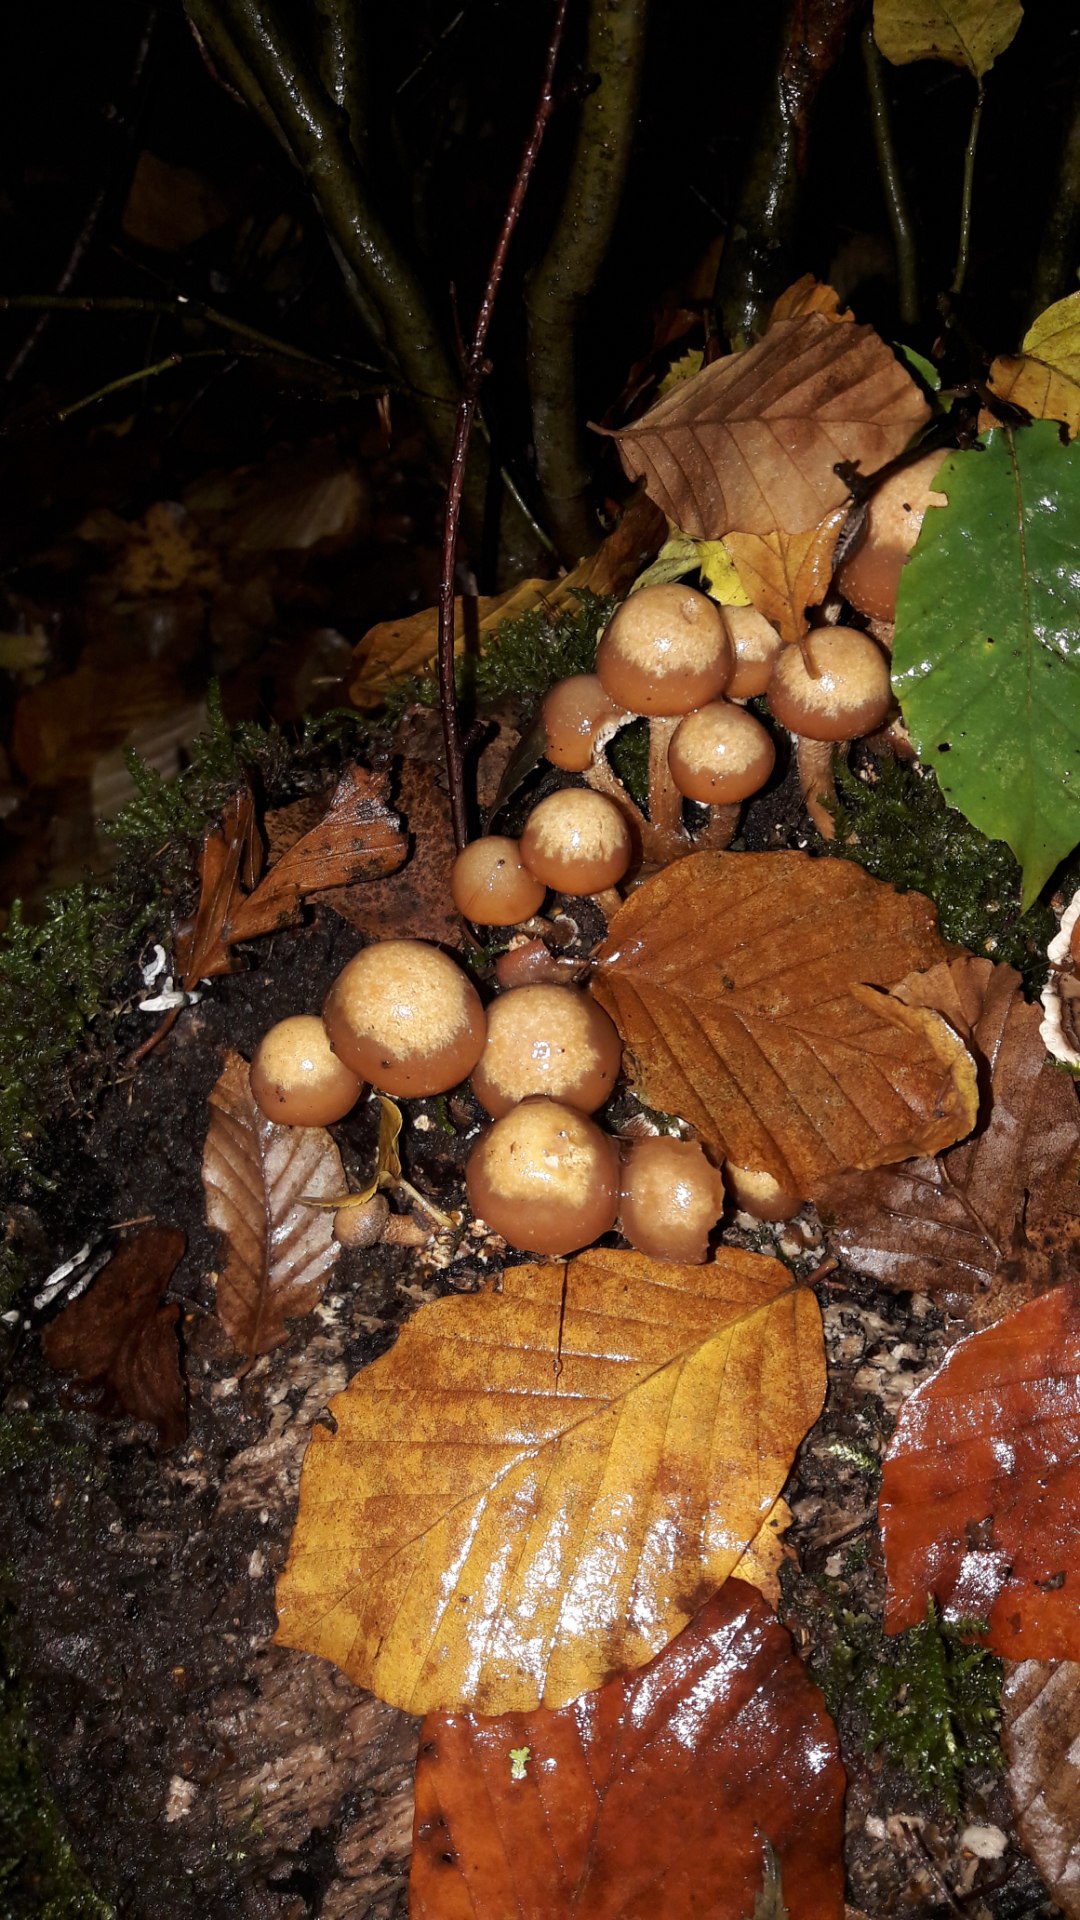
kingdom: Fungi
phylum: Basidiomycota
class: Agaricomycetes
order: Agaricales
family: Strophariaceae
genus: Kuehneromyces
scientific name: Kuehneromyces mutabilis
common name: foranderlig skælhat
